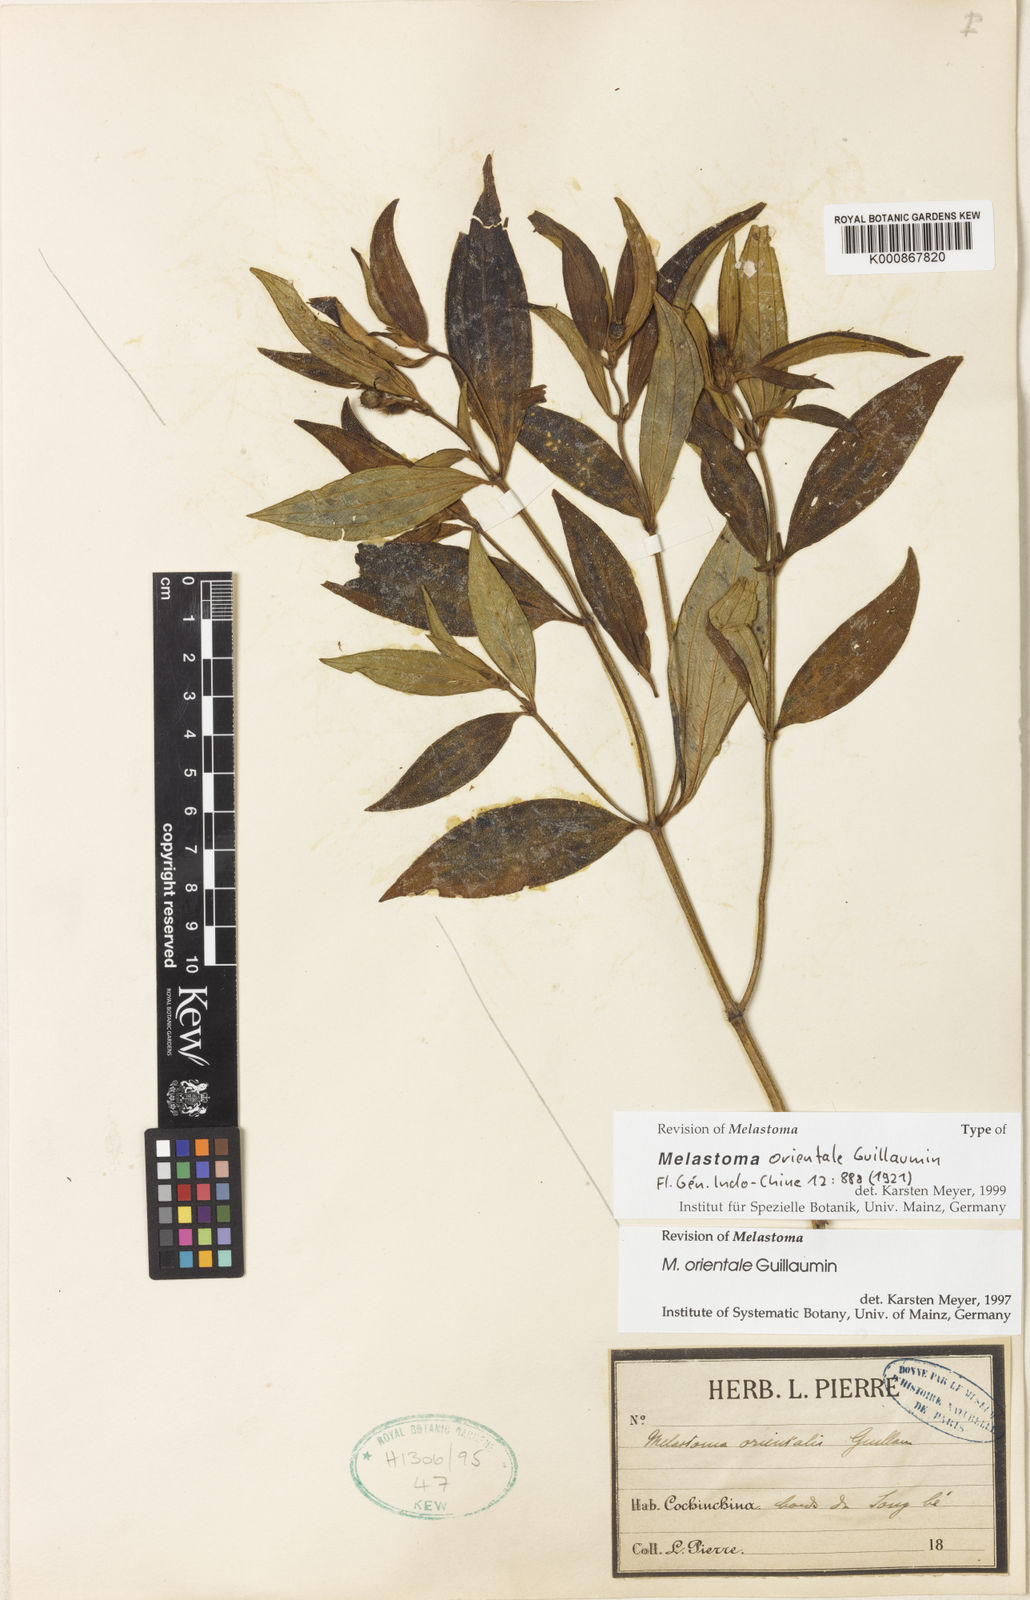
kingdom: Plantae
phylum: Tracheophyta
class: Magnoliopsida
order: Myrtales
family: Melastomataceae
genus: Melastoma
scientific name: Melastoma orientale
